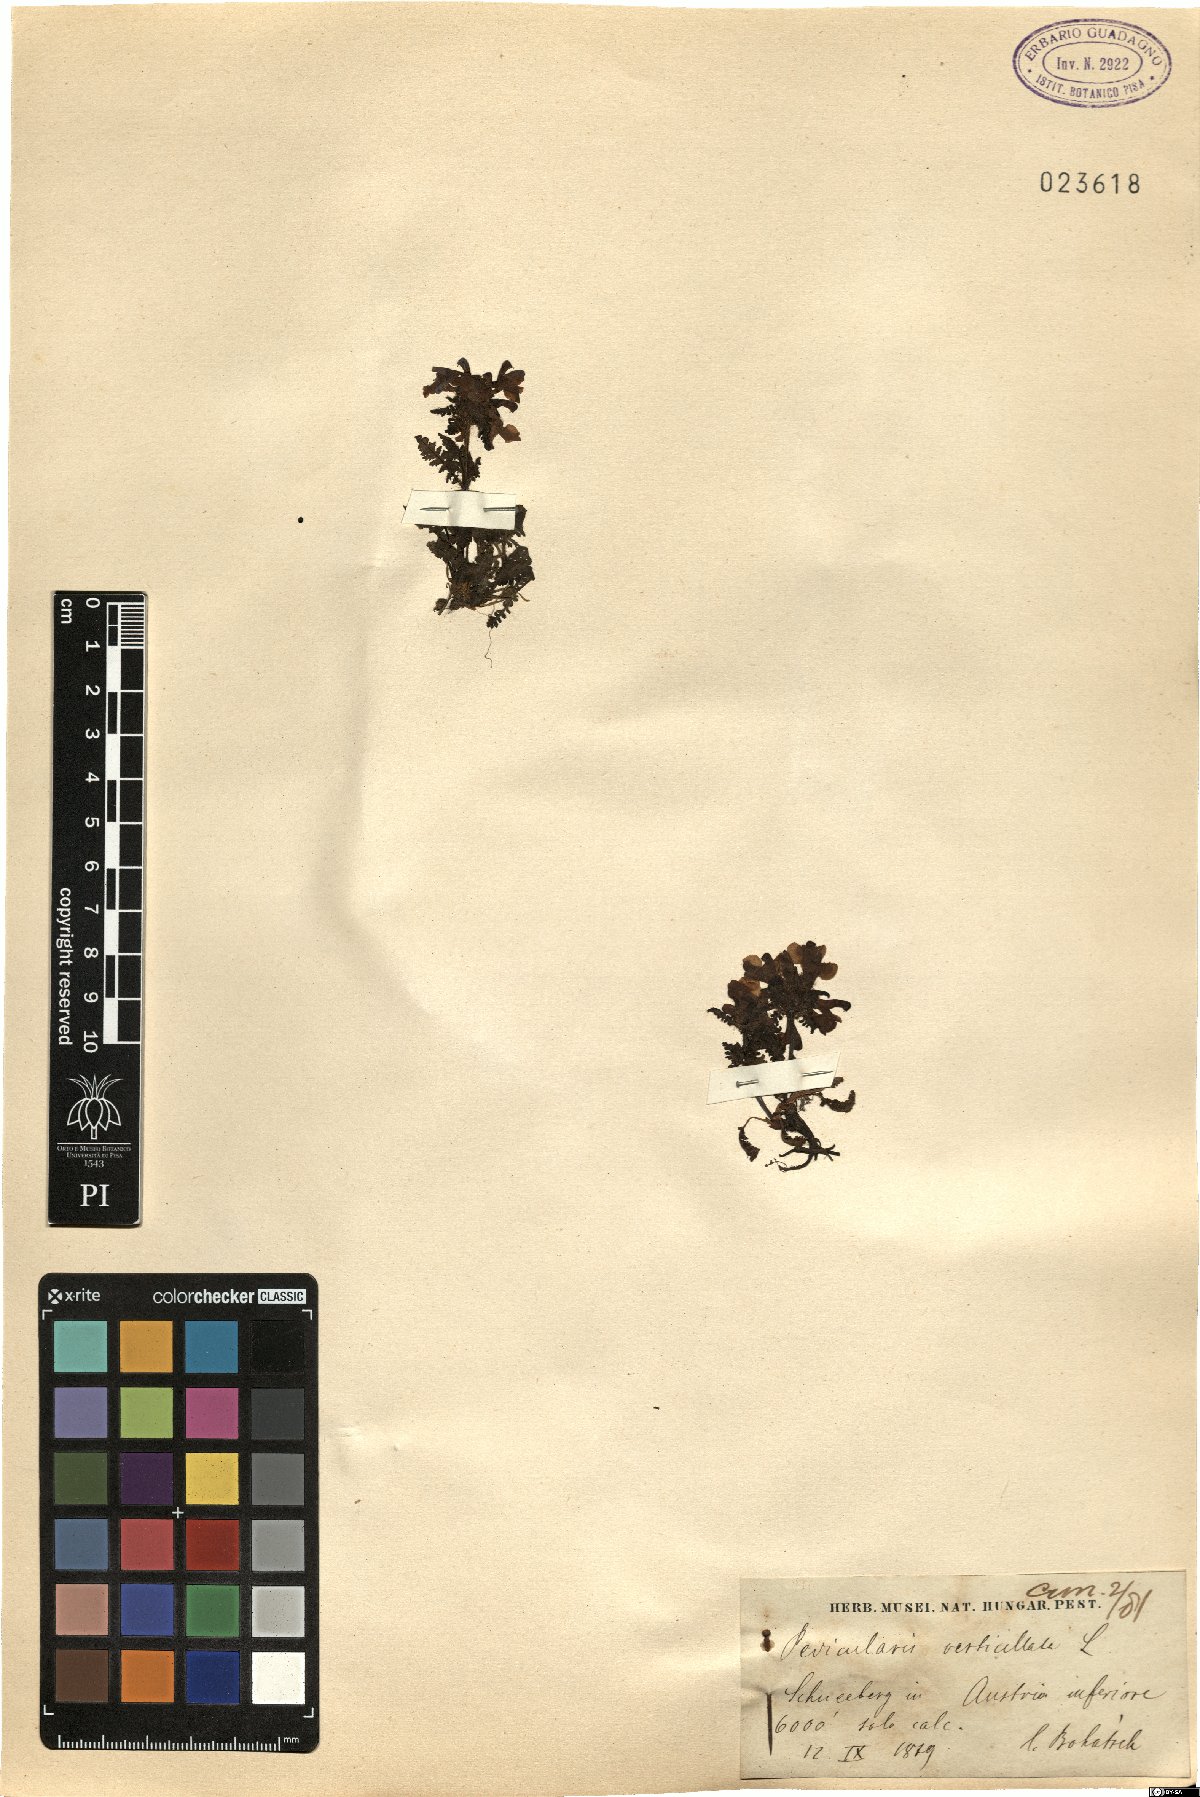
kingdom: Plantae
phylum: Tracheophyta
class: Magnoliopsida
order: Lamiales
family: Orobanchaceae
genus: Pedicularis
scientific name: Pedicularis verticillata
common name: Whorled lousewort
